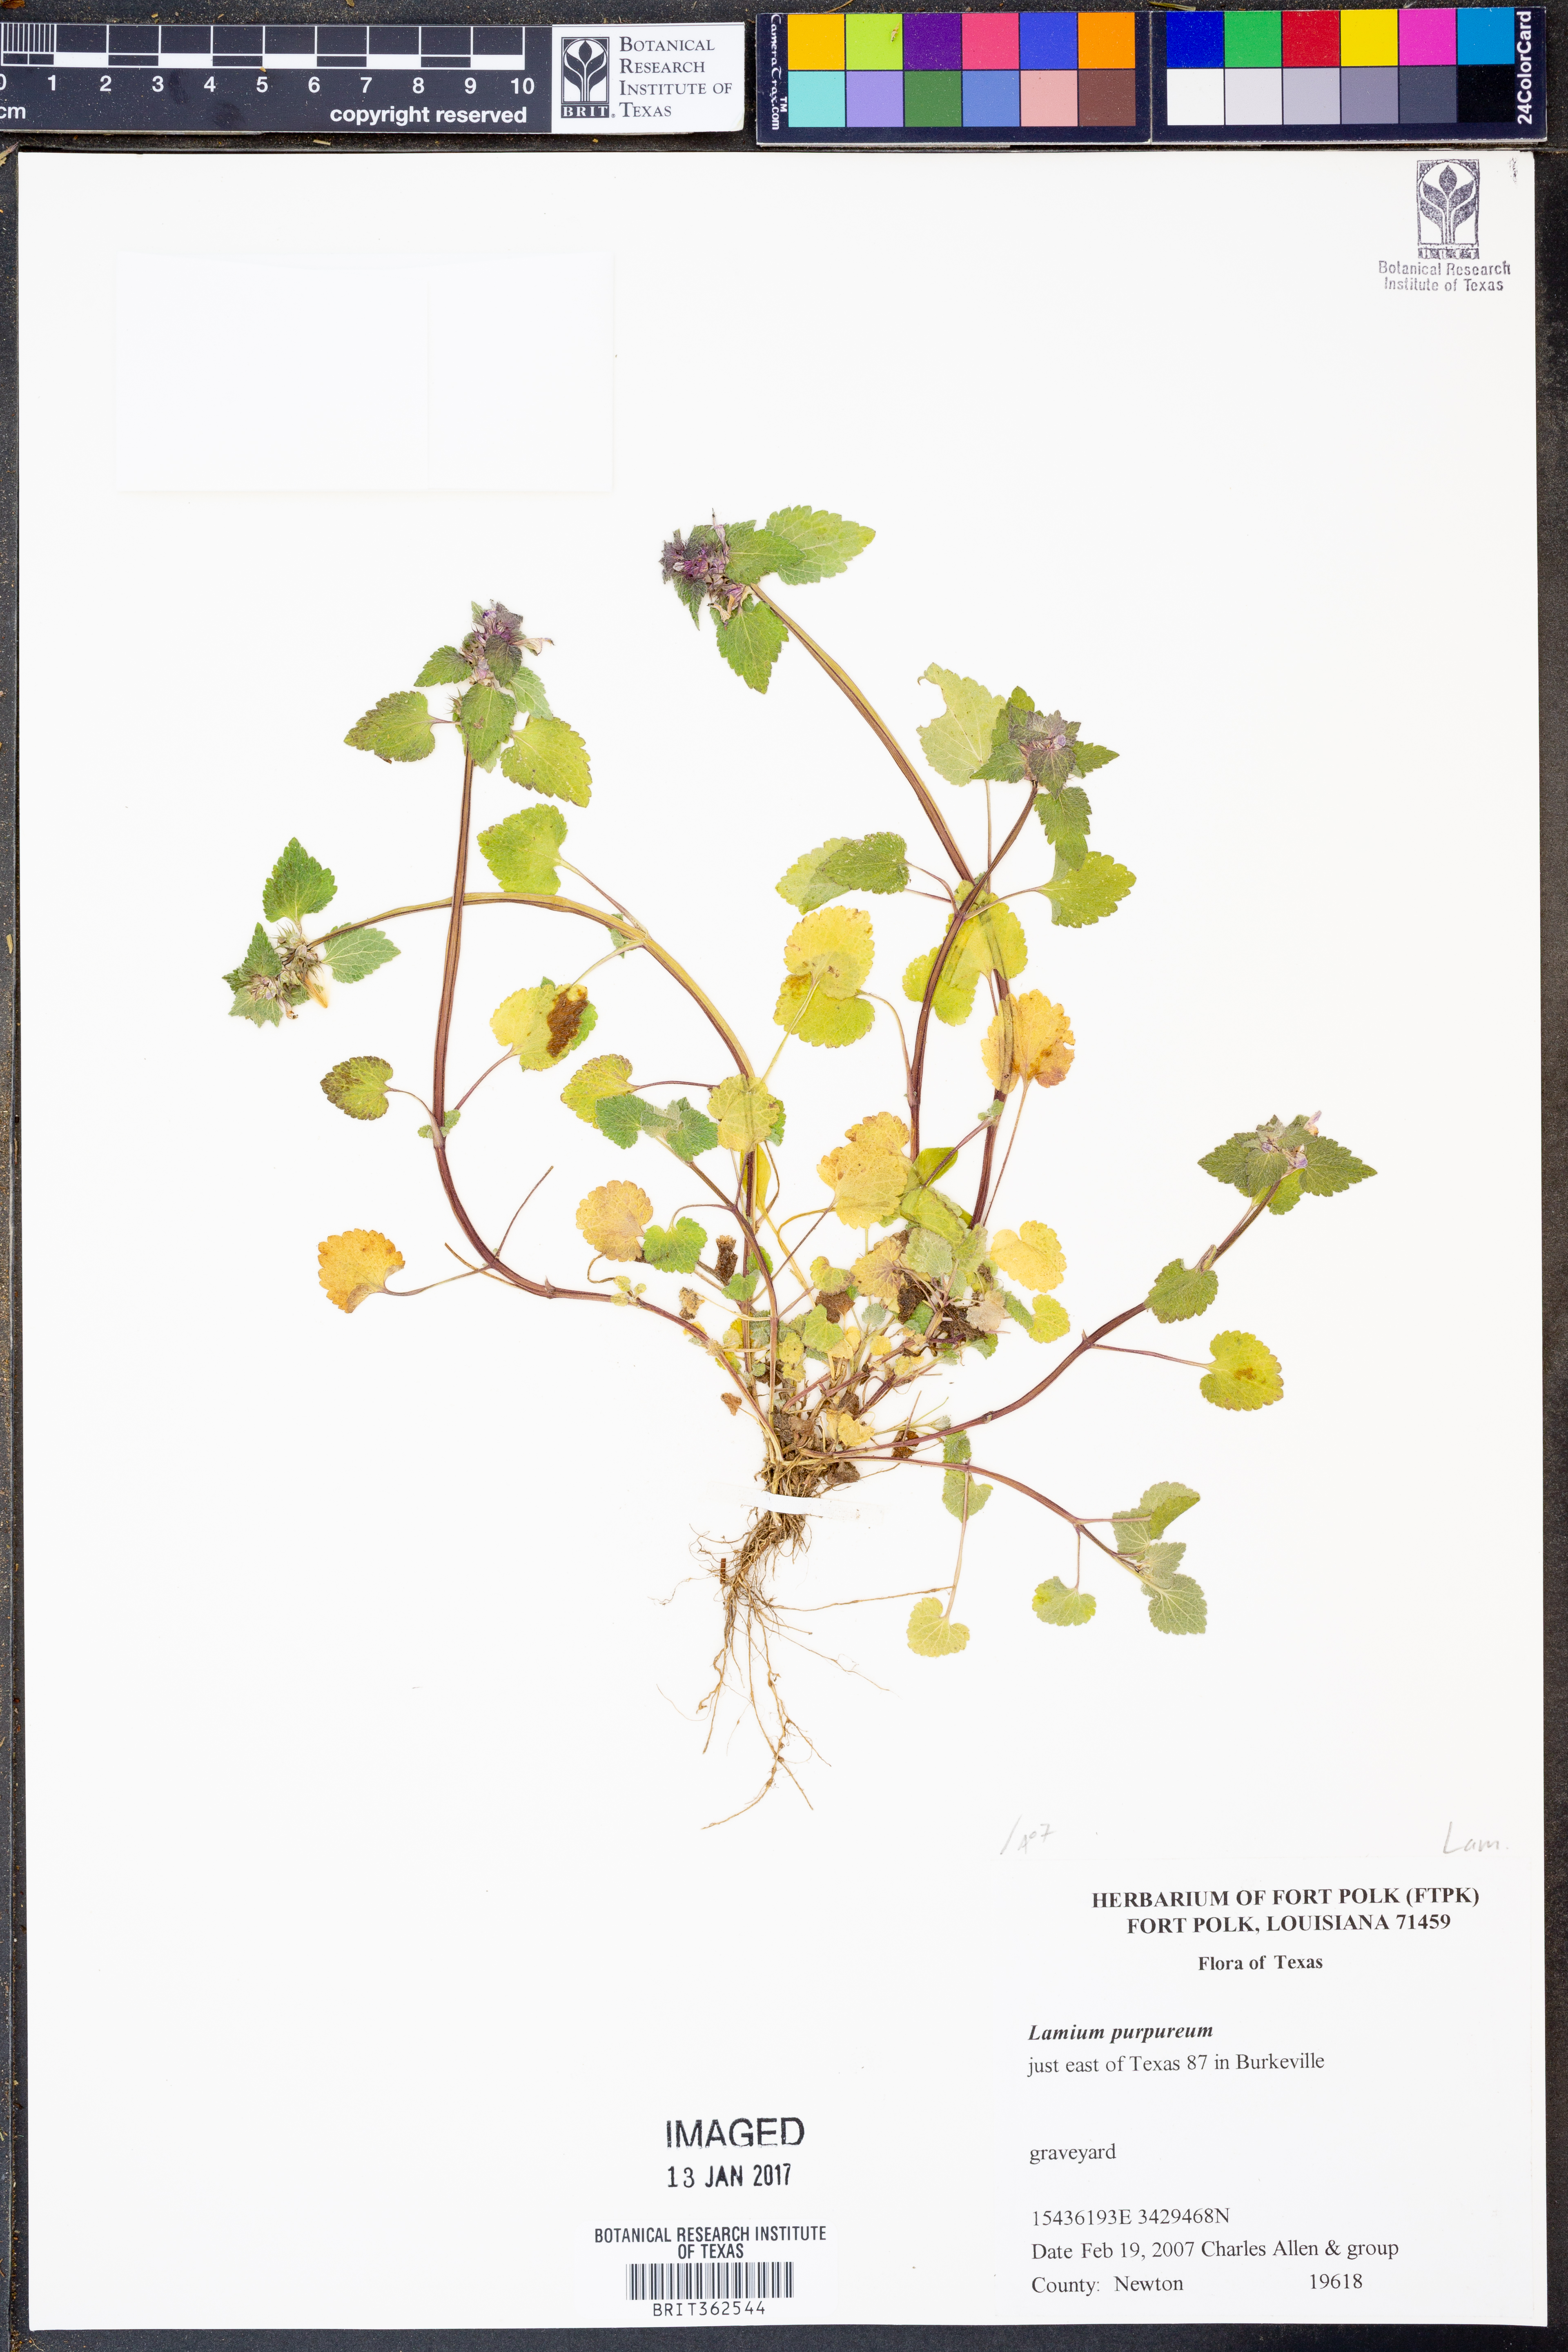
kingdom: Plantae
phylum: Tracheophyta
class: Magnoliopsida
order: Lamiales
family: Lamiaceae
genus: Lamium
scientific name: Lamium purpureum
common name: Red dead-nettle
